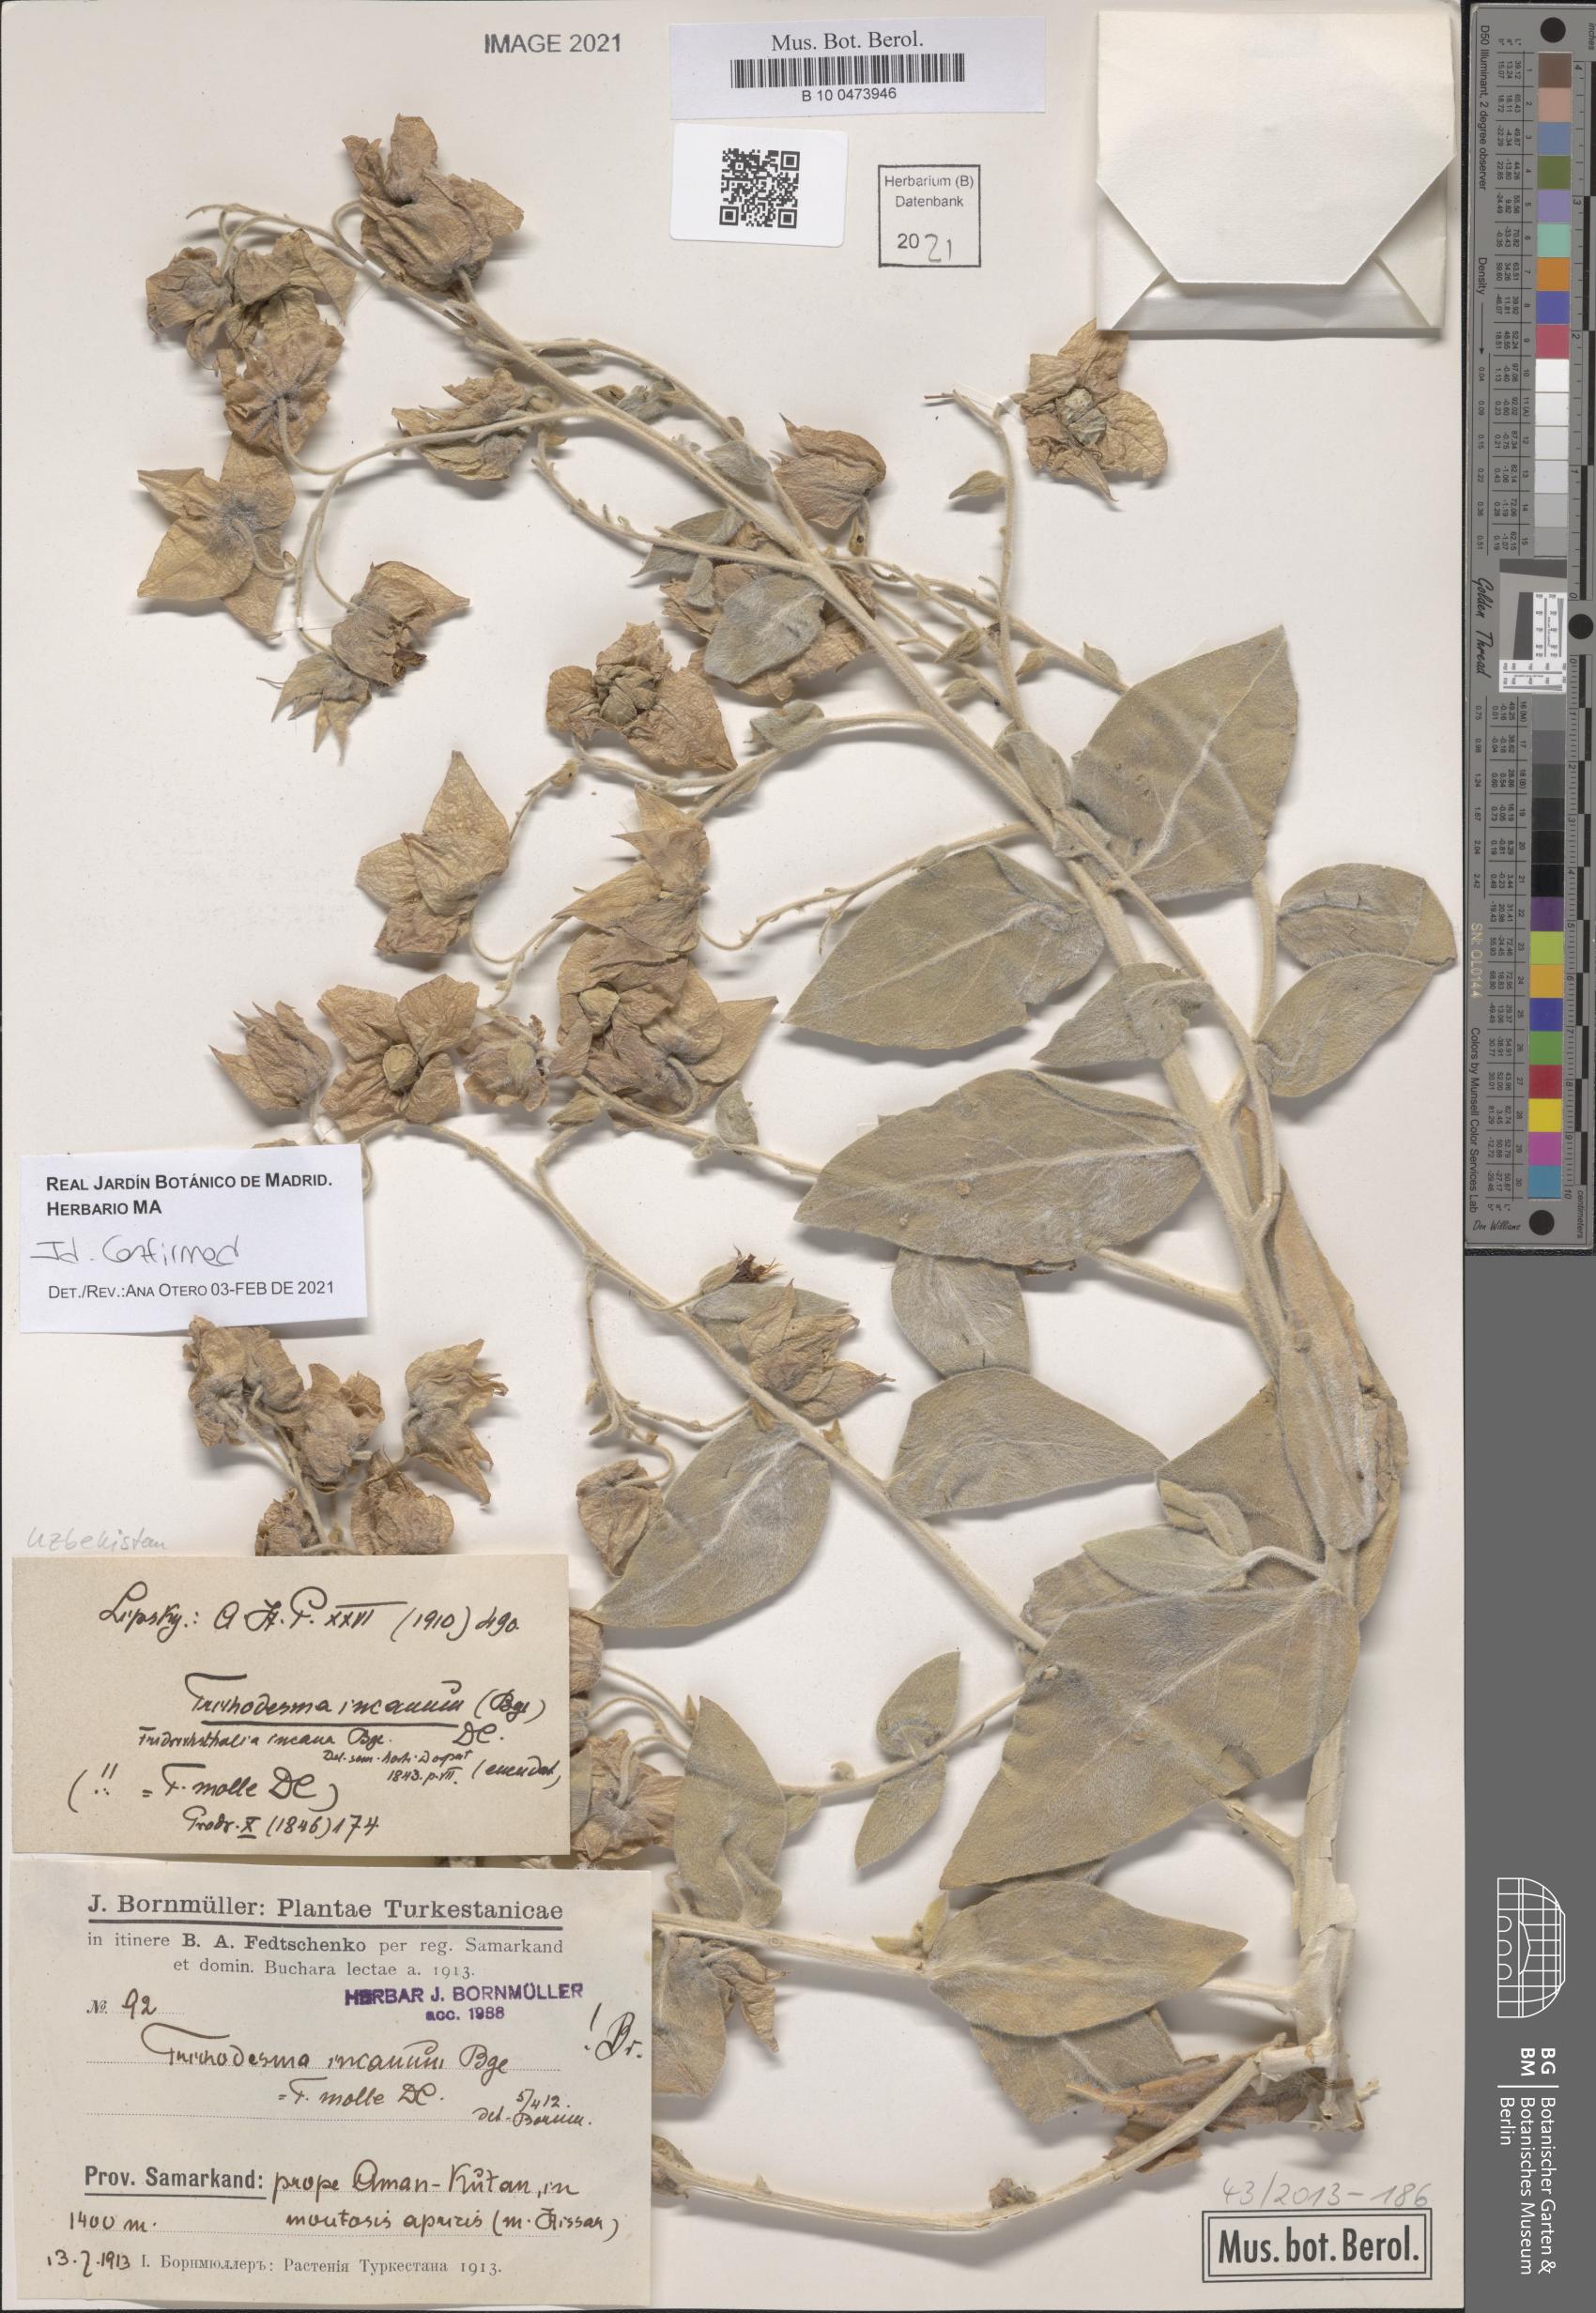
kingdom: Plantae
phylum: Tracheophyta
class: Magnoliopsida
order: Boraginales
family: Boraginaceae
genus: Trichodesma
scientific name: Trichodesma incanum
